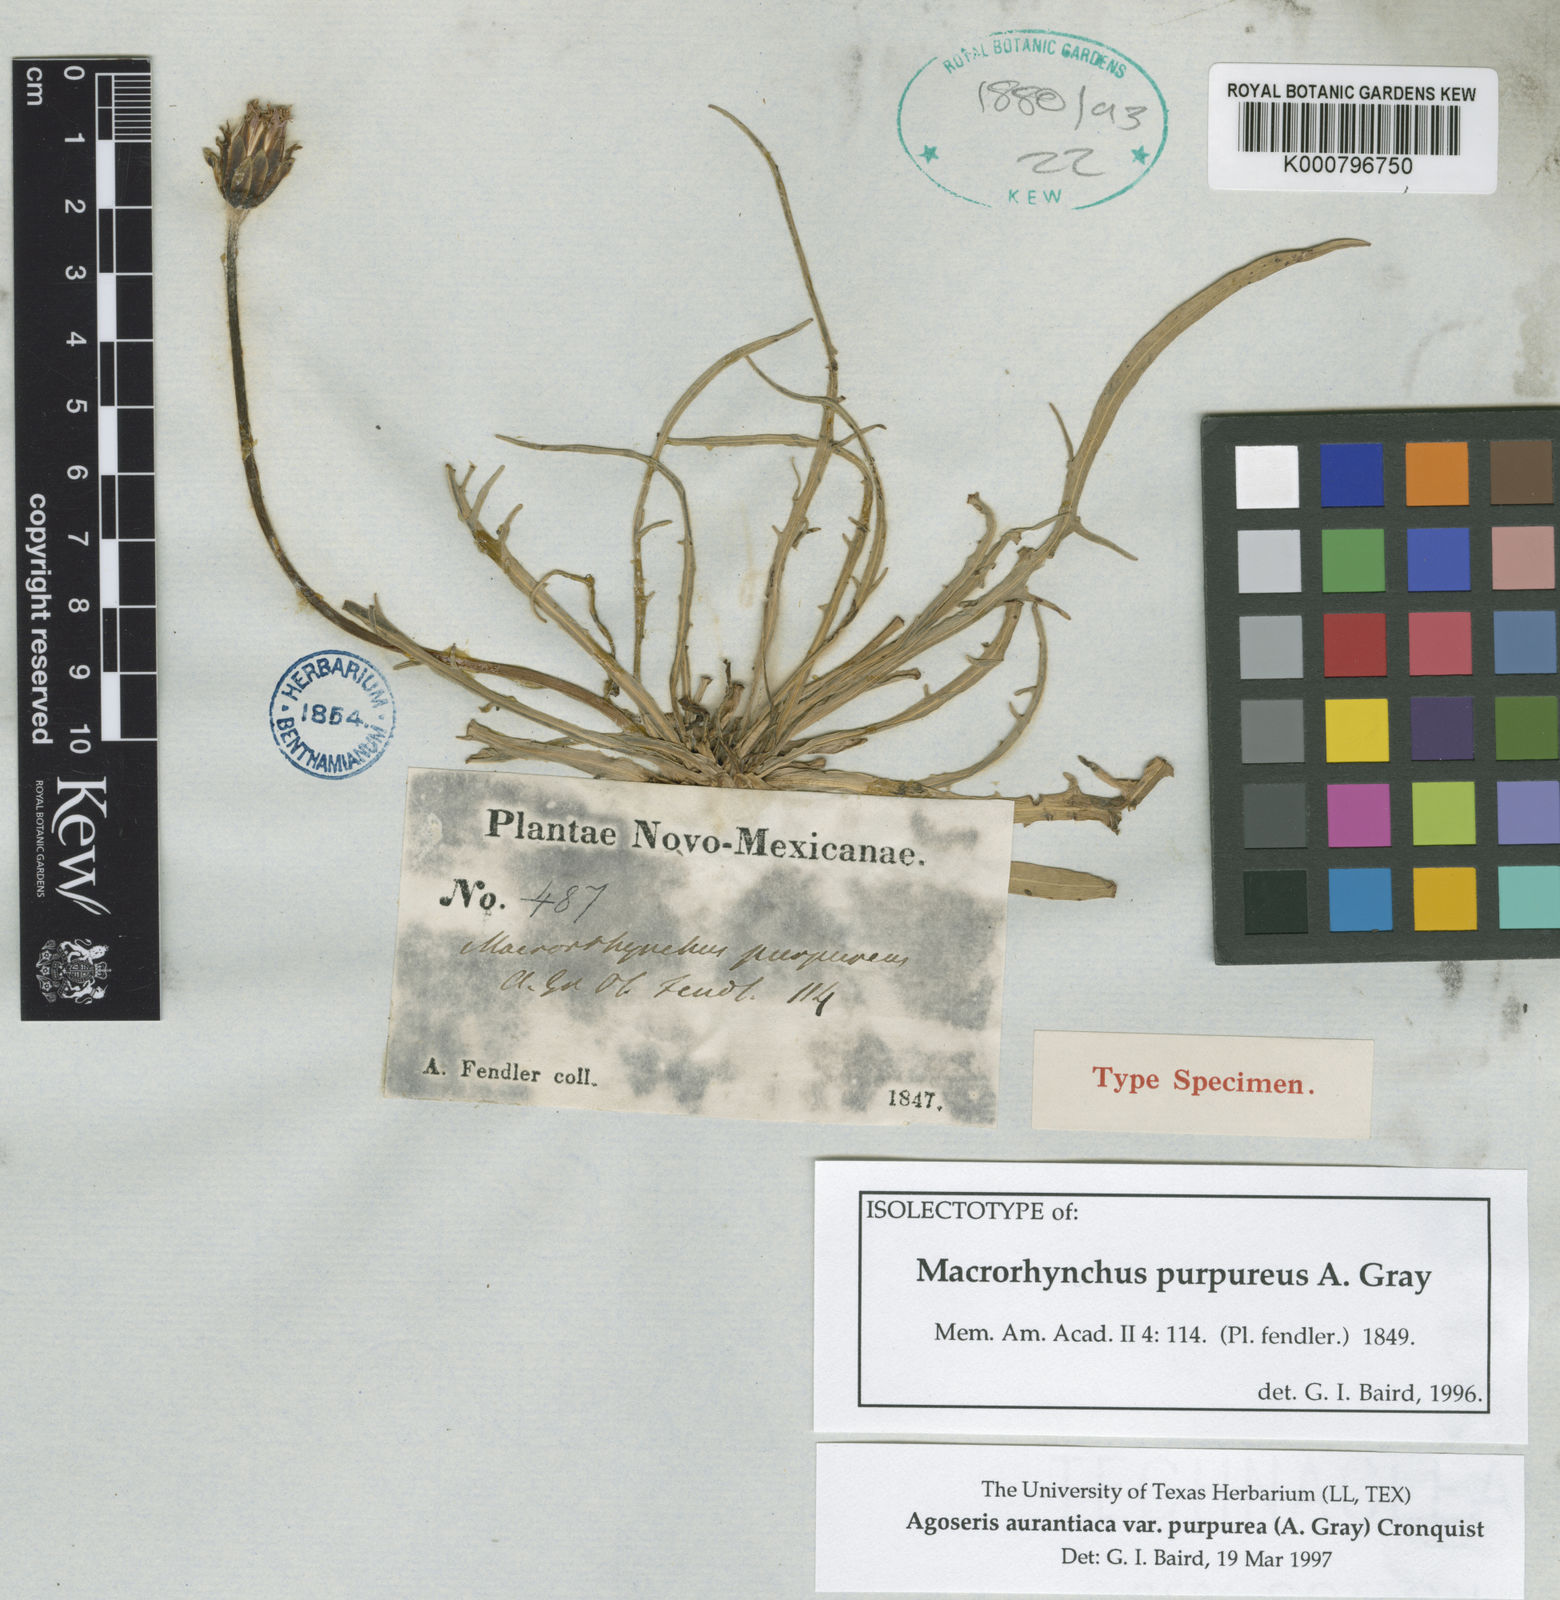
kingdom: Plantae
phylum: Tracheophyta
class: Magnoliopsida
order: Asterales
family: Asteraceae
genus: Agoseris
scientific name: Agoseris aurantiaca
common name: Mountain agoseris
